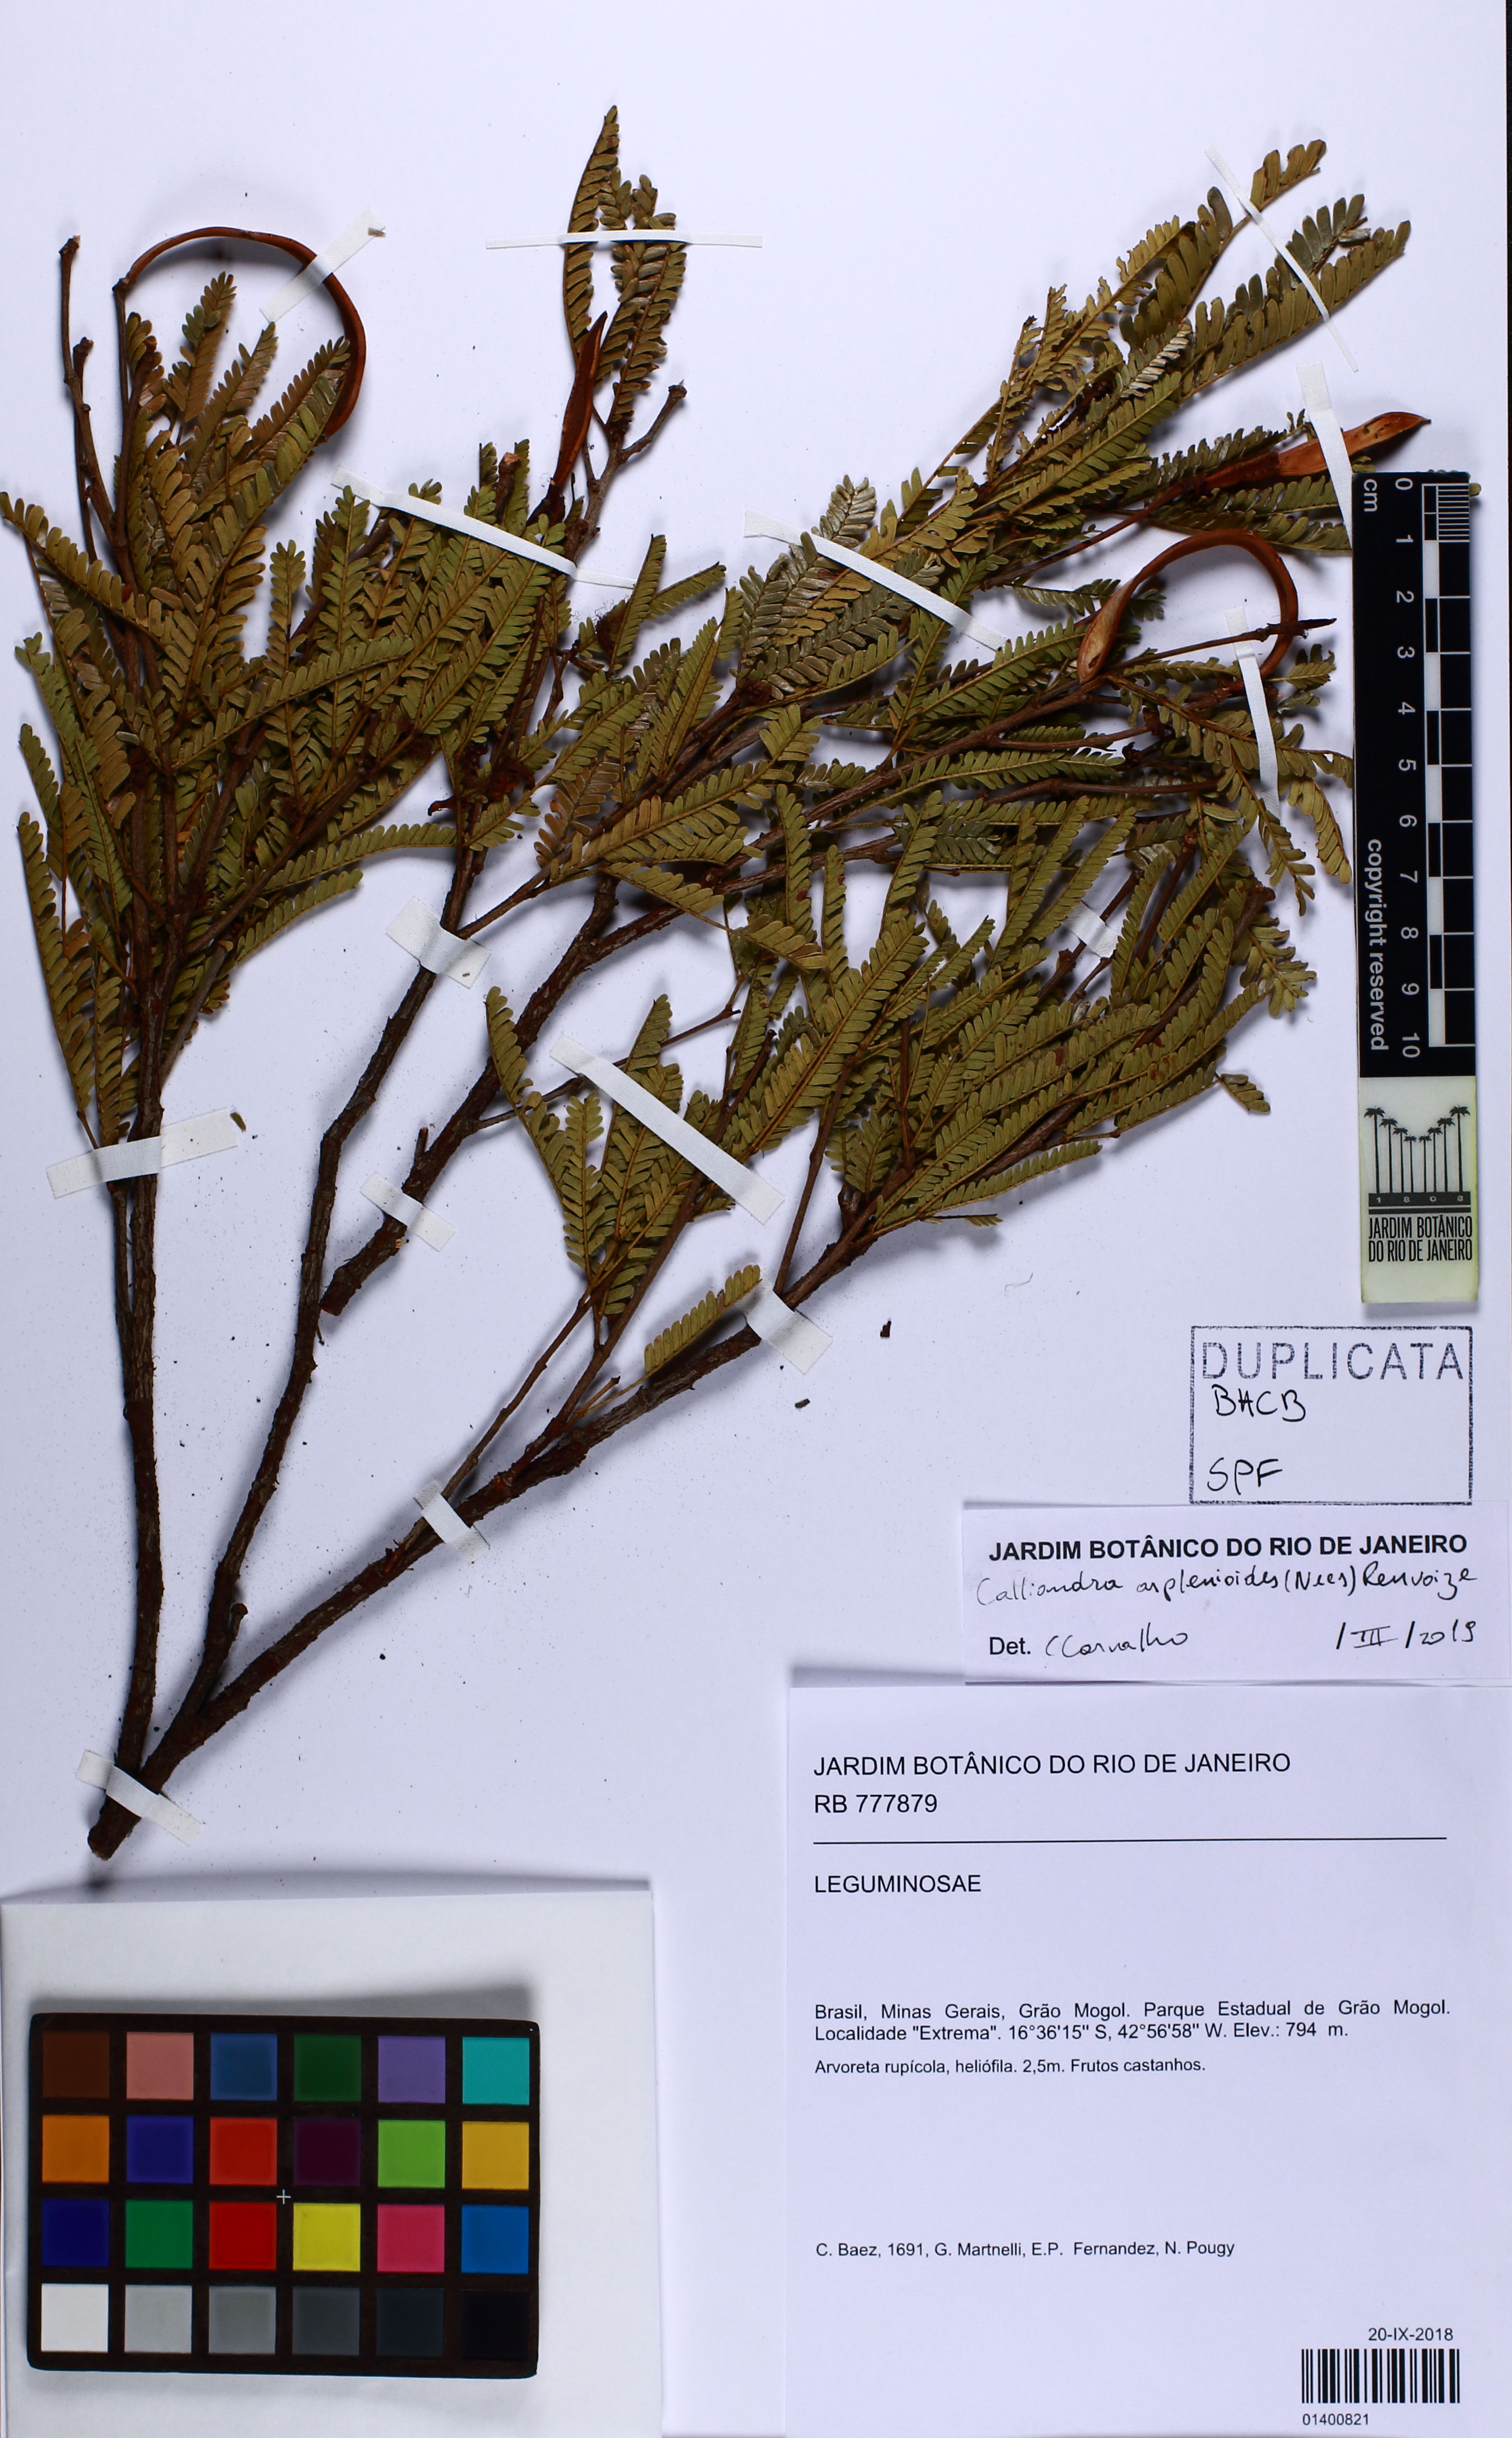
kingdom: Plantae
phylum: Tracheophyta
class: Magnoliopsida
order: Fabales
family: Fabaceae
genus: Calliandra
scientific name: Calliandra asplenioides
